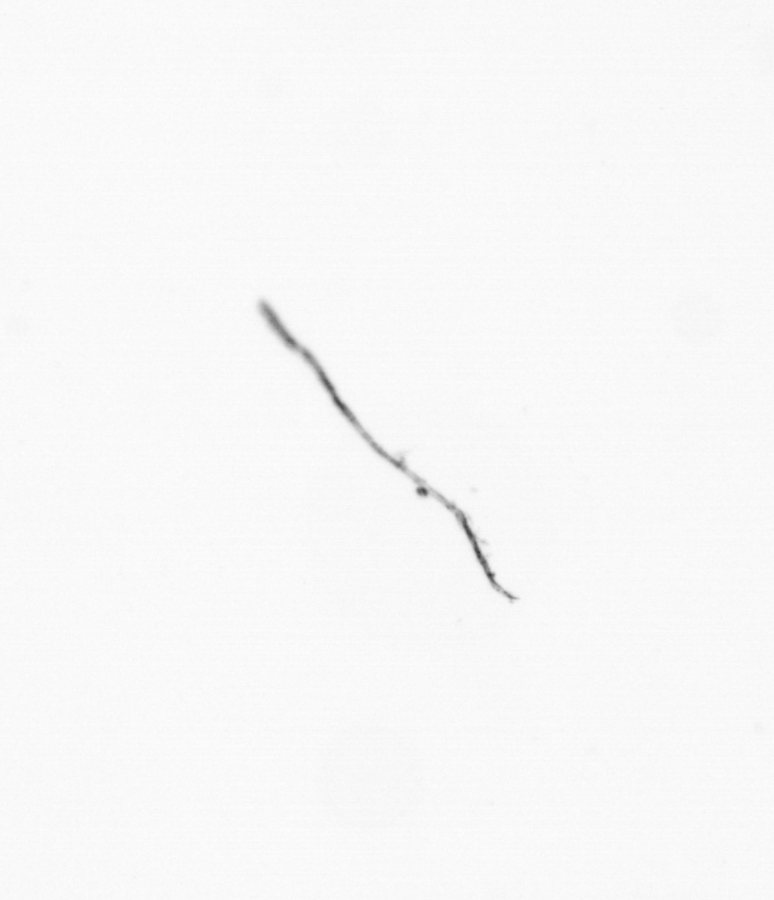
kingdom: Chromista
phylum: Ochrophyta
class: Bacillariophyceae
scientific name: Bacillariophyceae
